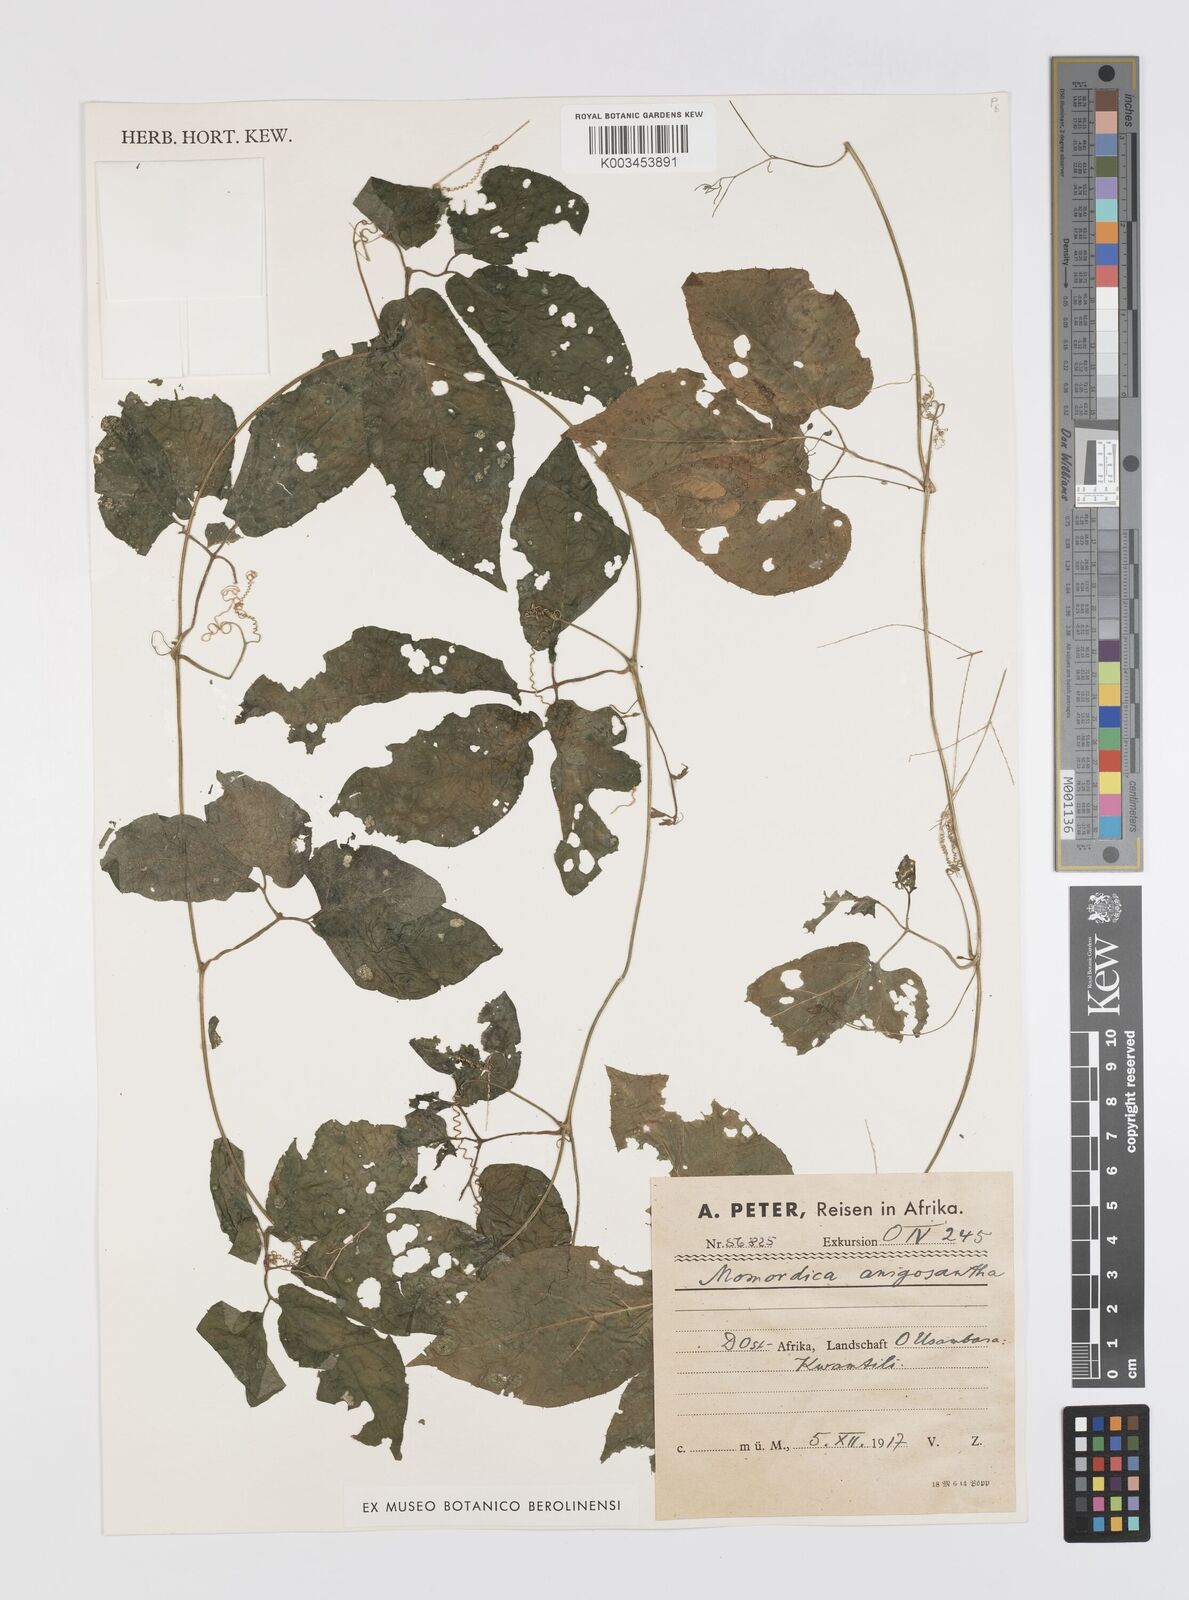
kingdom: Plantae
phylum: Tracheophyta
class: Magnoliopsida
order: Cucurbitales
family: Cucurbitaceae
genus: Momordica
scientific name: Momordica anigosantha
